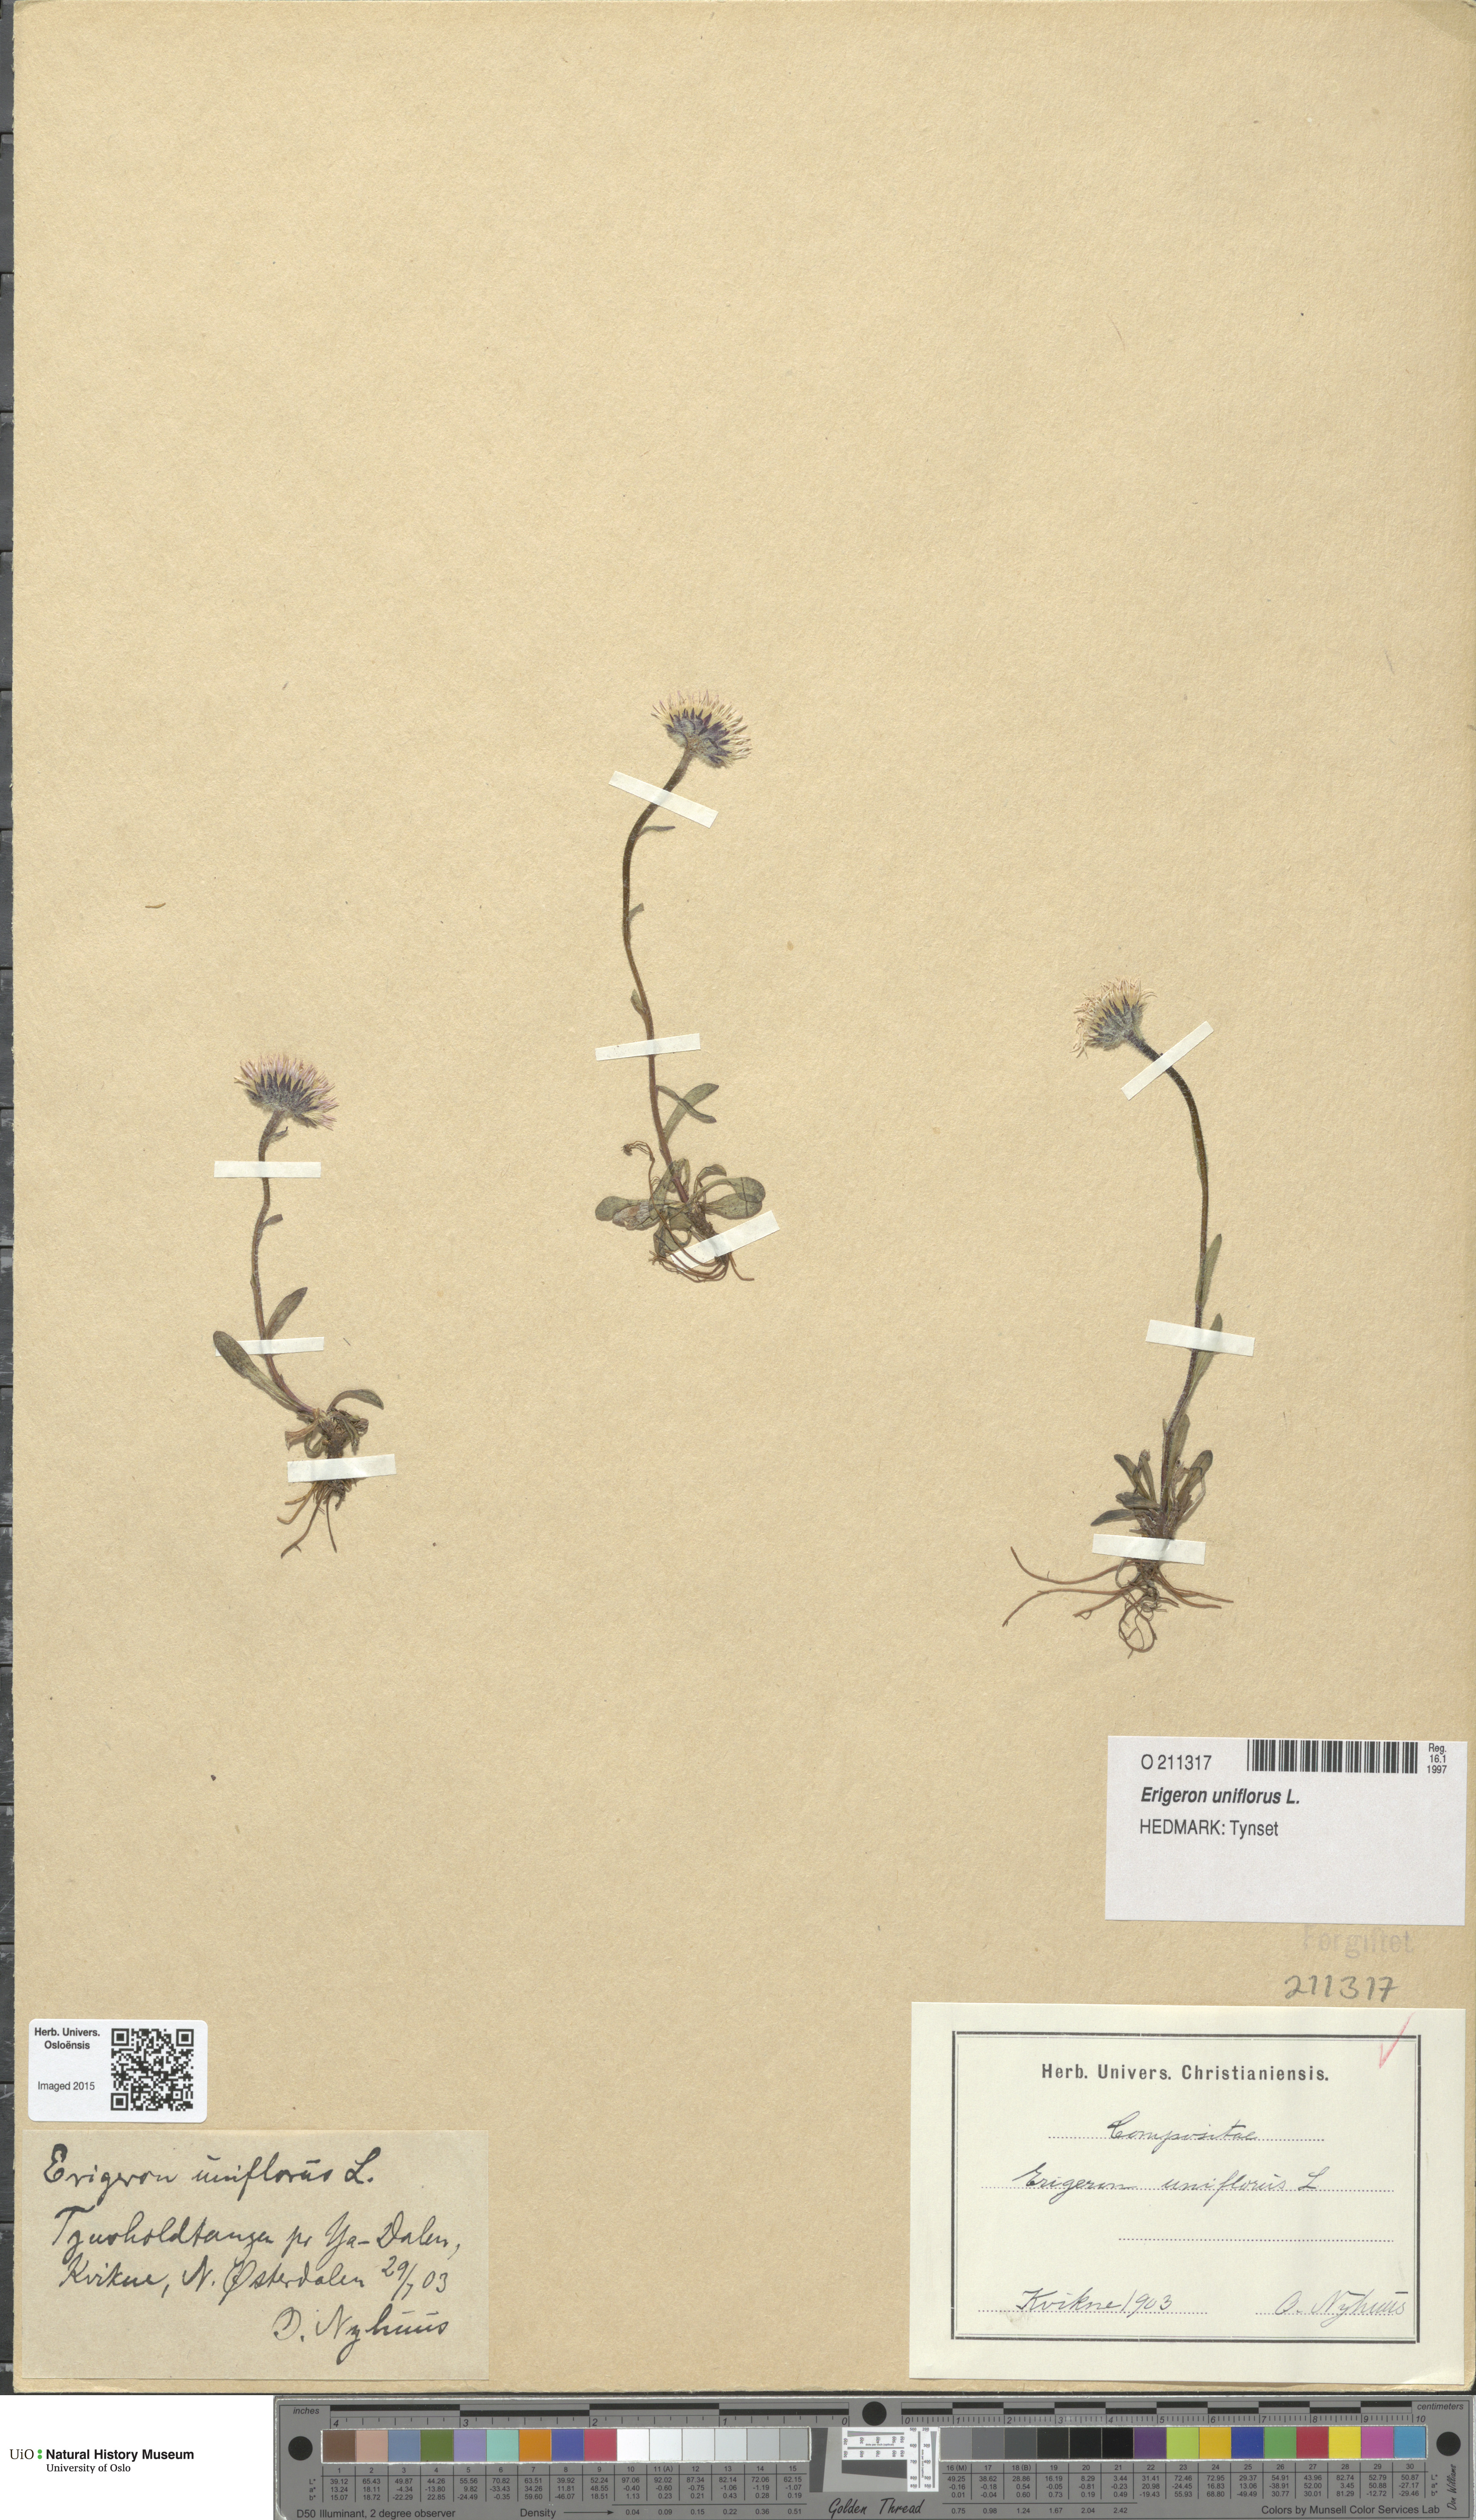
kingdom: Plantae
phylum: Tracheophyta
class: Magnoliopsida
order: Asterales
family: Asteraceae
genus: Erigeron
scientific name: Erigeron uniflorus
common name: Northern daisy
